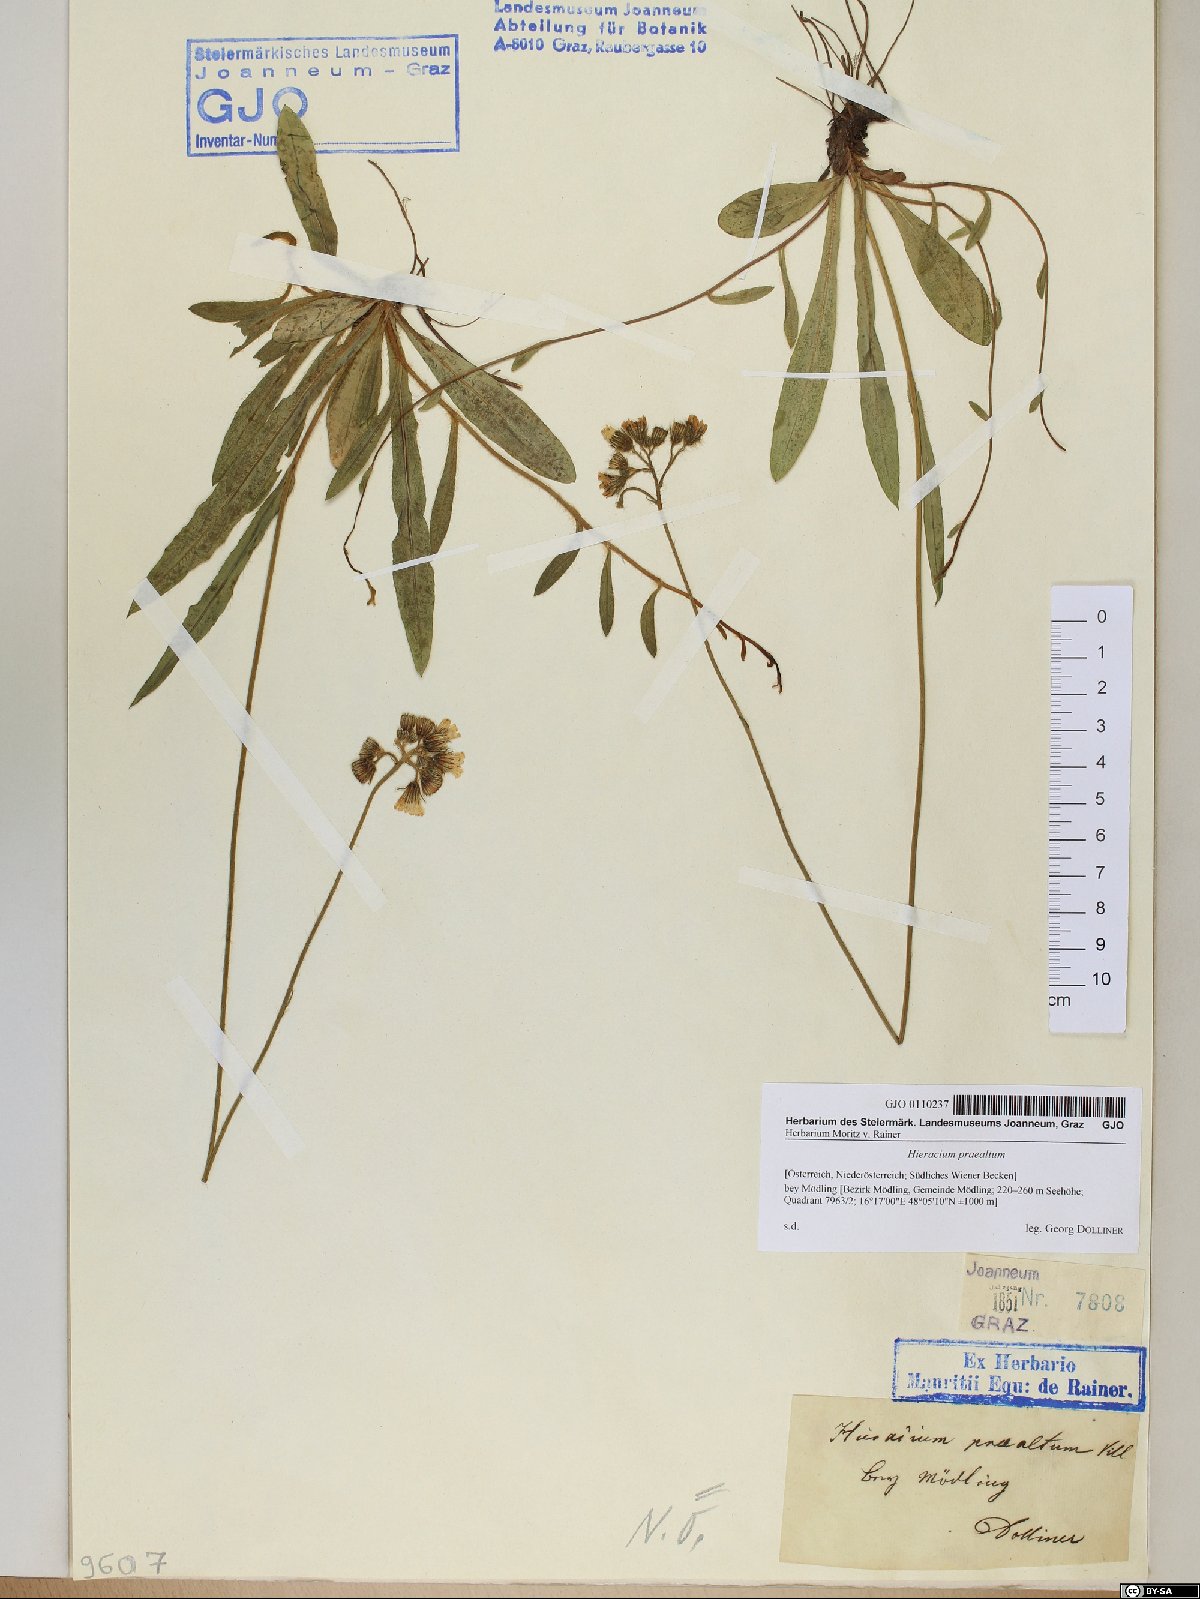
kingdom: Plantae
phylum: Tracheophyta
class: Magnoliopsida
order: Asterales
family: Asteraceae
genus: Pilosella
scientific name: Pilosella piloselloides
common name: Glaucous king-devil
